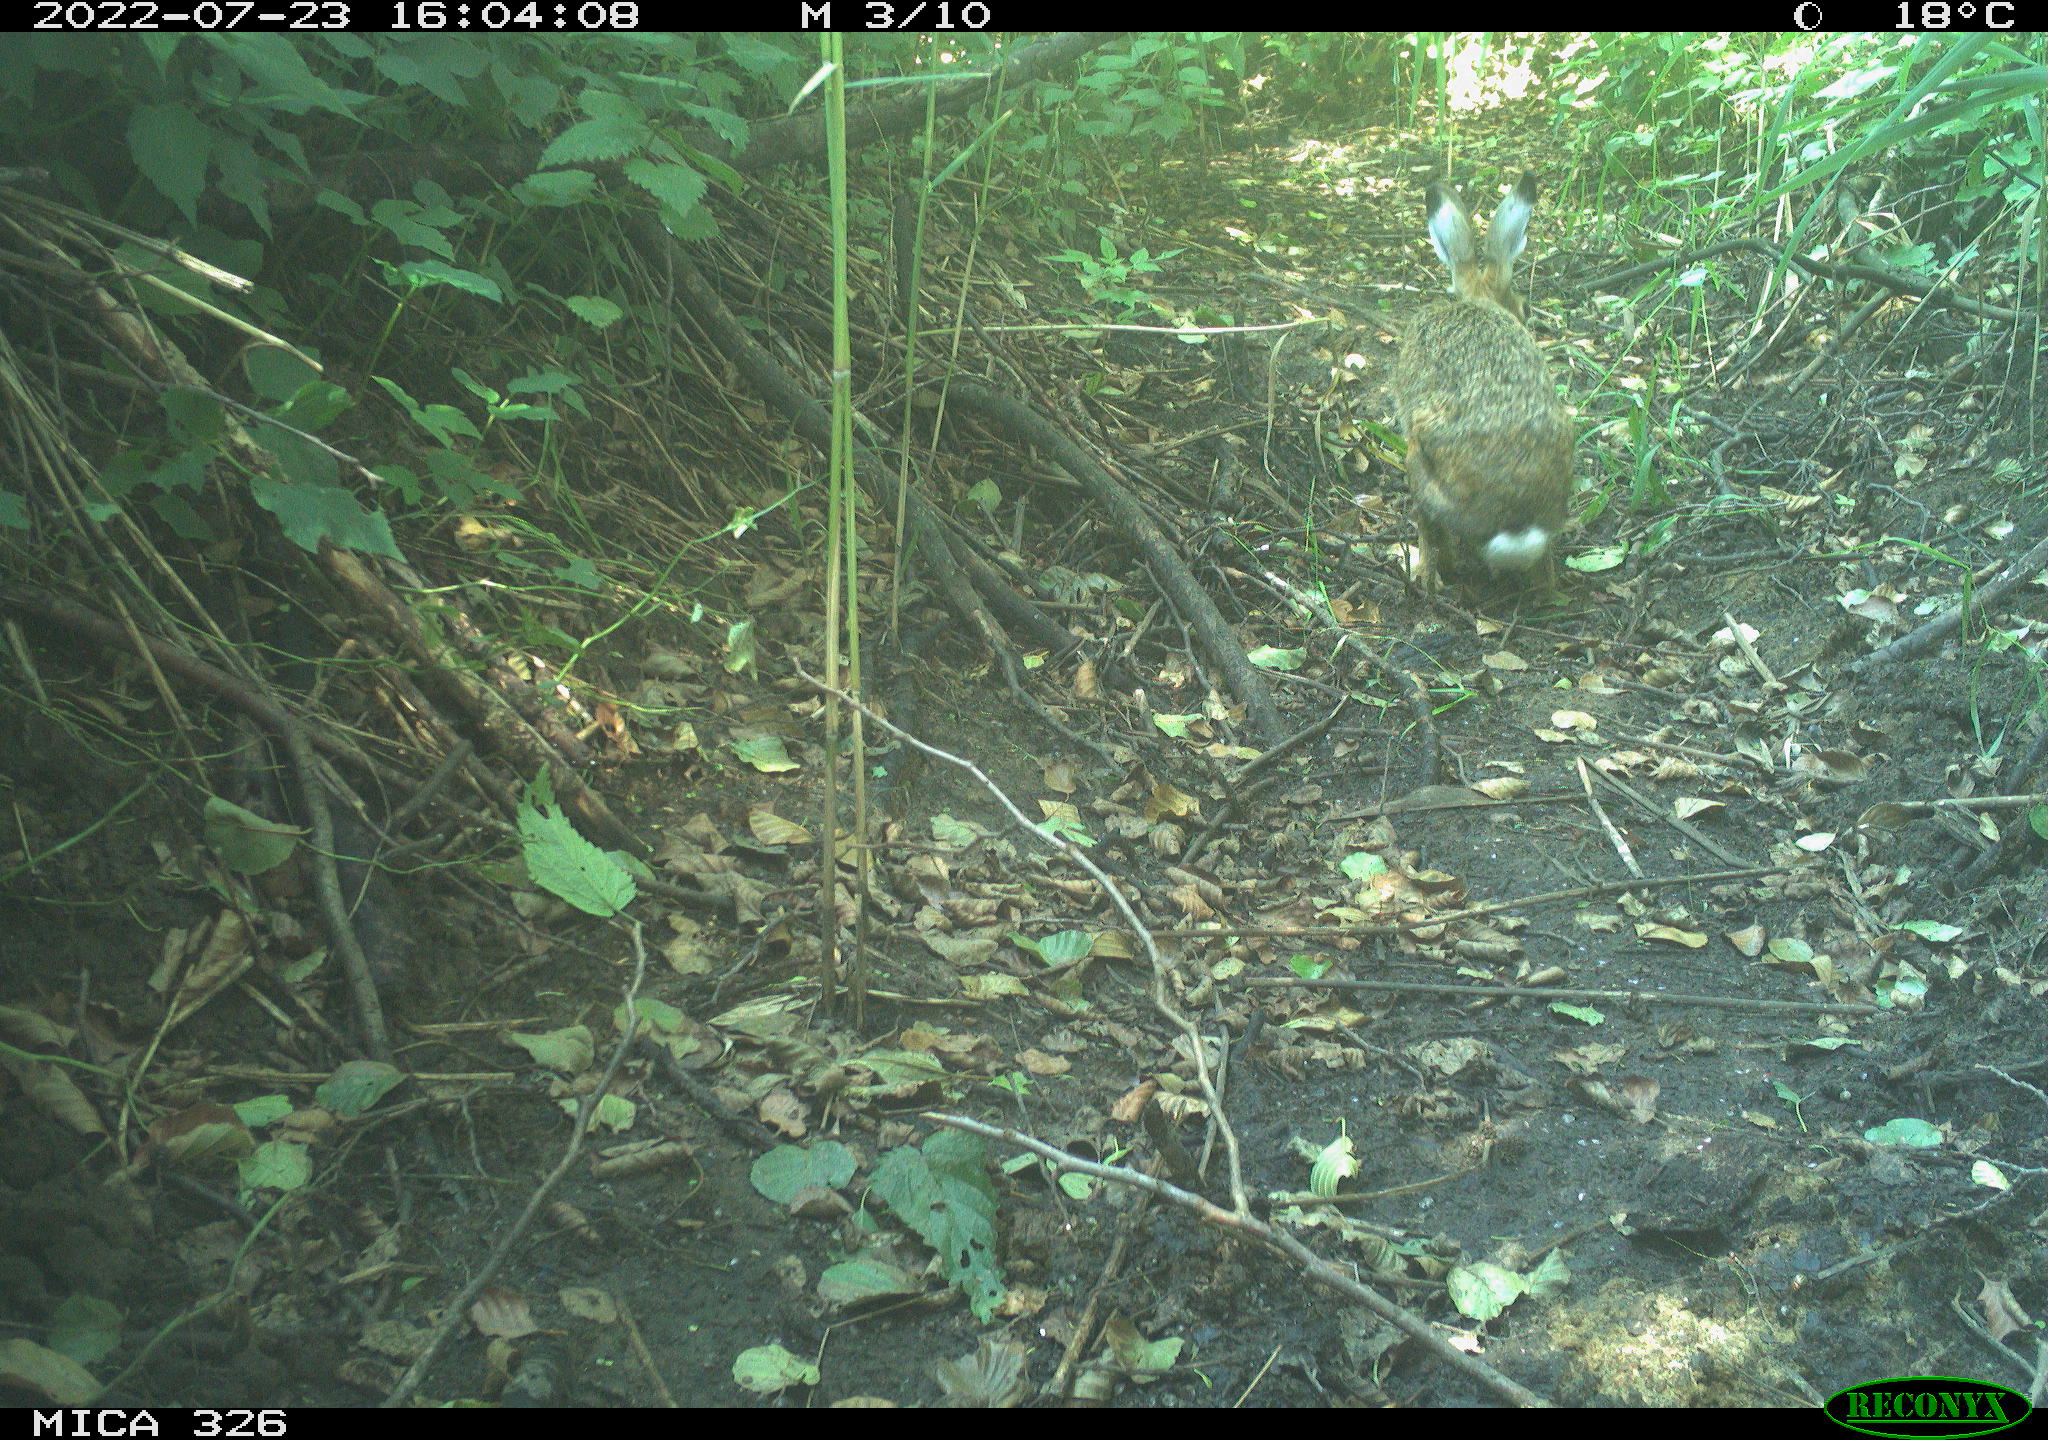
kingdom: Animalia
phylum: Chordata
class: Mammalia
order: Lagomorpha
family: Leporidae
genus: Lepus
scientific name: Lepus europaeus
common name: European hare
